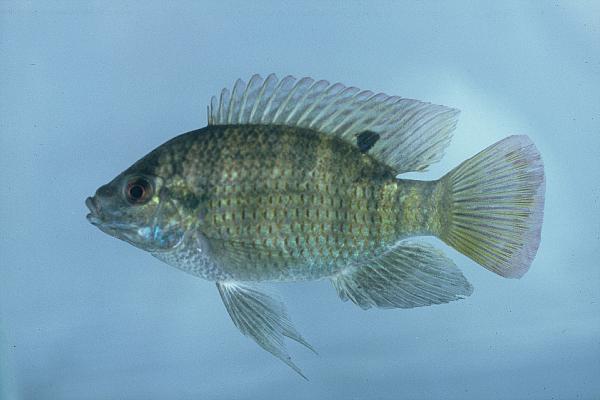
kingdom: Animalia
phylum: Chordata
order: Perciformes
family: Cichlidae
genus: Tilapia
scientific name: Tilapia sparrmanii
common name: Banded tilapia
